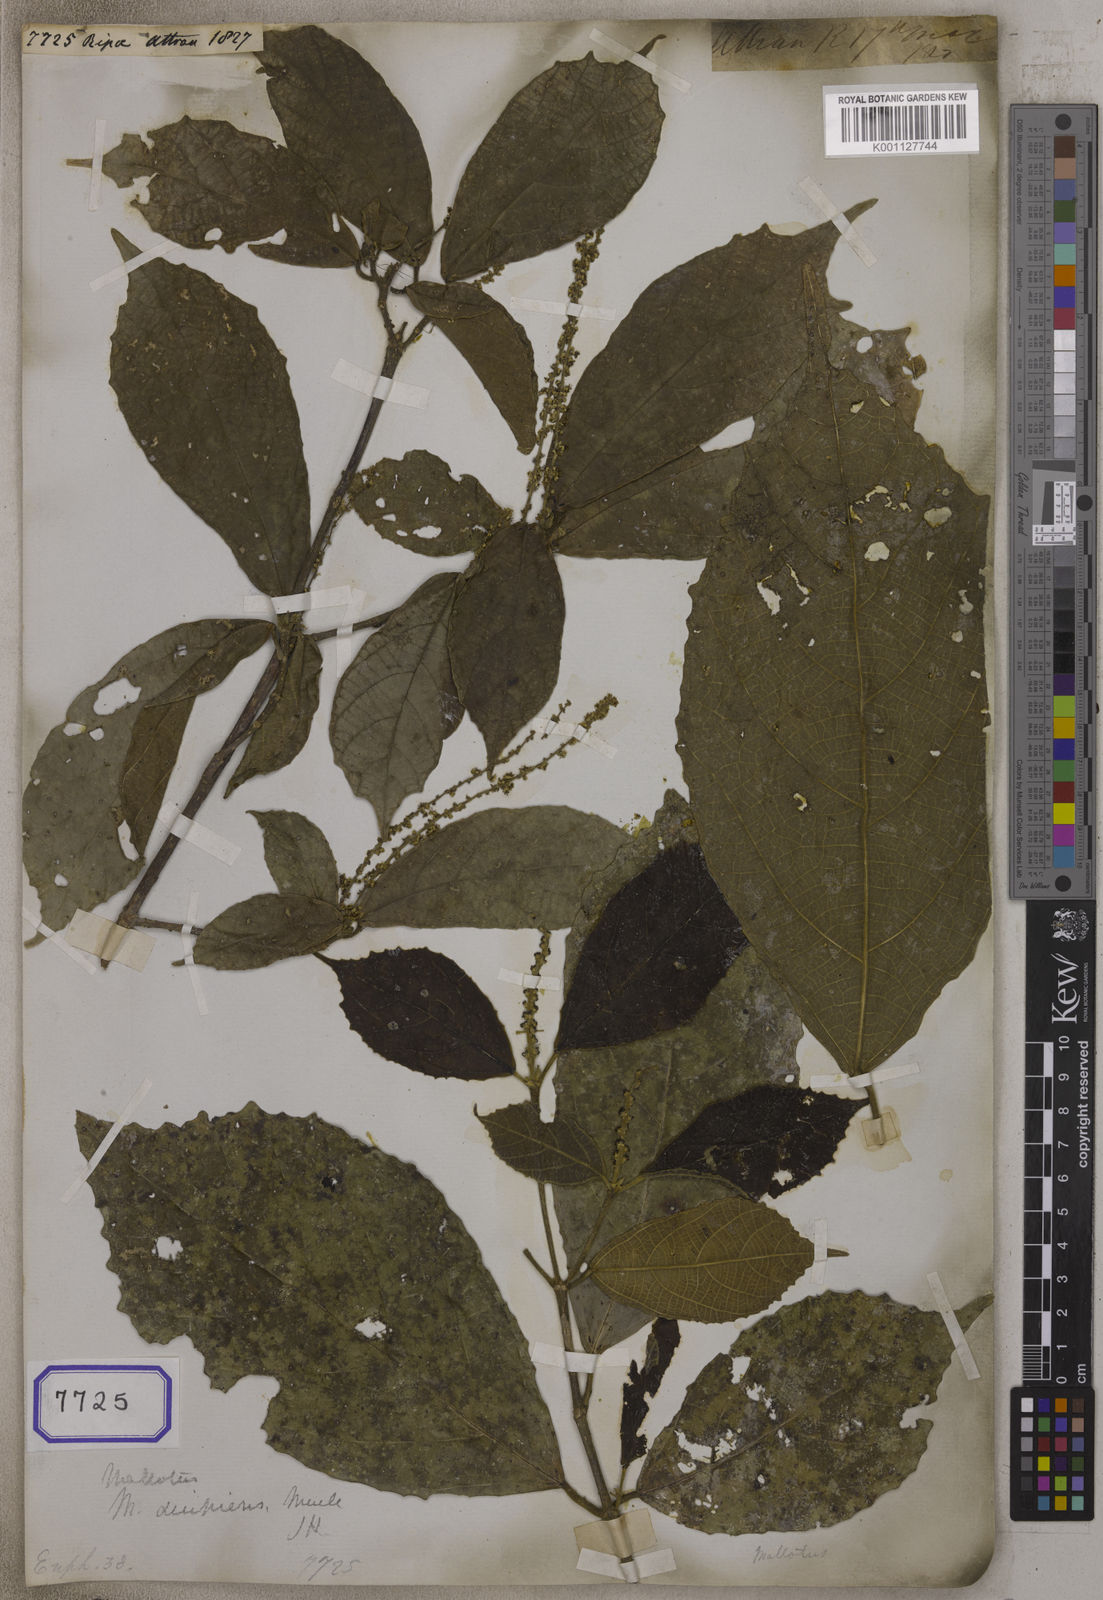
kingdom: Plantae
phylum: Tracheophyta
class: Magnoliopsida
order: Malpighiales
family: Euphorbiaceae
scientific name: Euphorbiaceae
